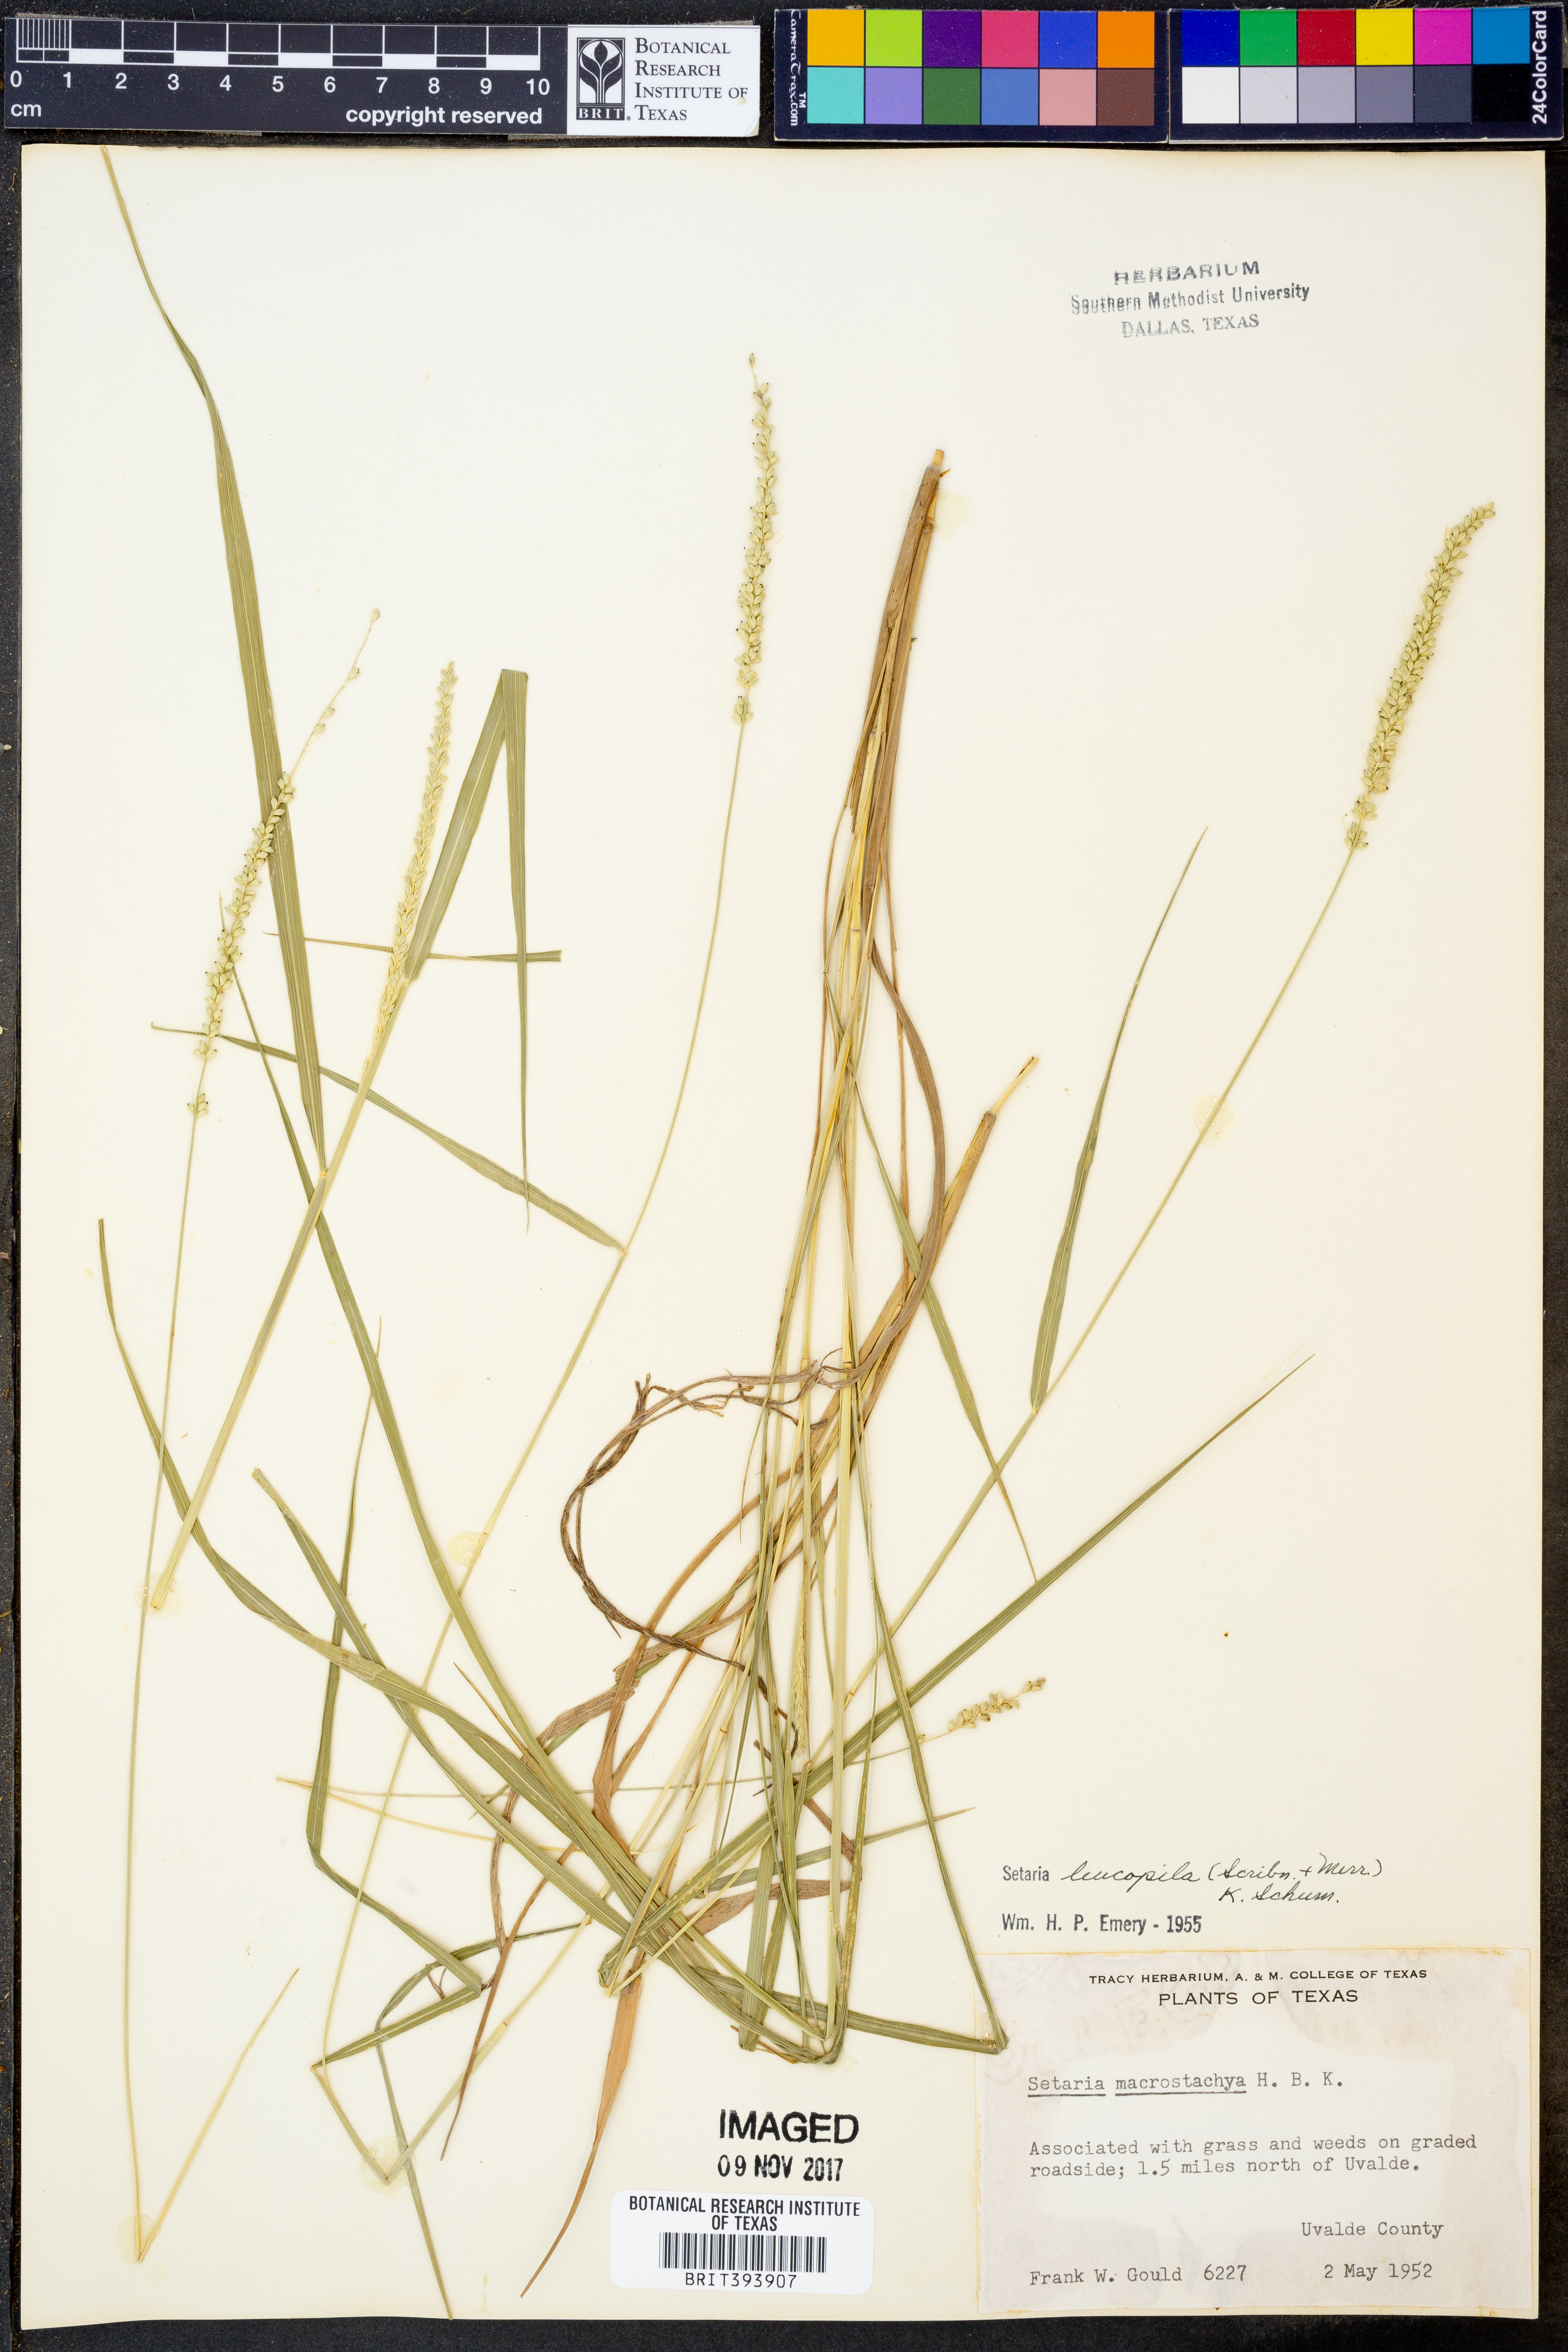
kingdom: Plantae
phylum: Tracheophyta
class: Liliopsida
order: Poales
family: Poaceae
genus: Setaria
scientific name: Setaria leucopila
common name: Plains bristle grass
